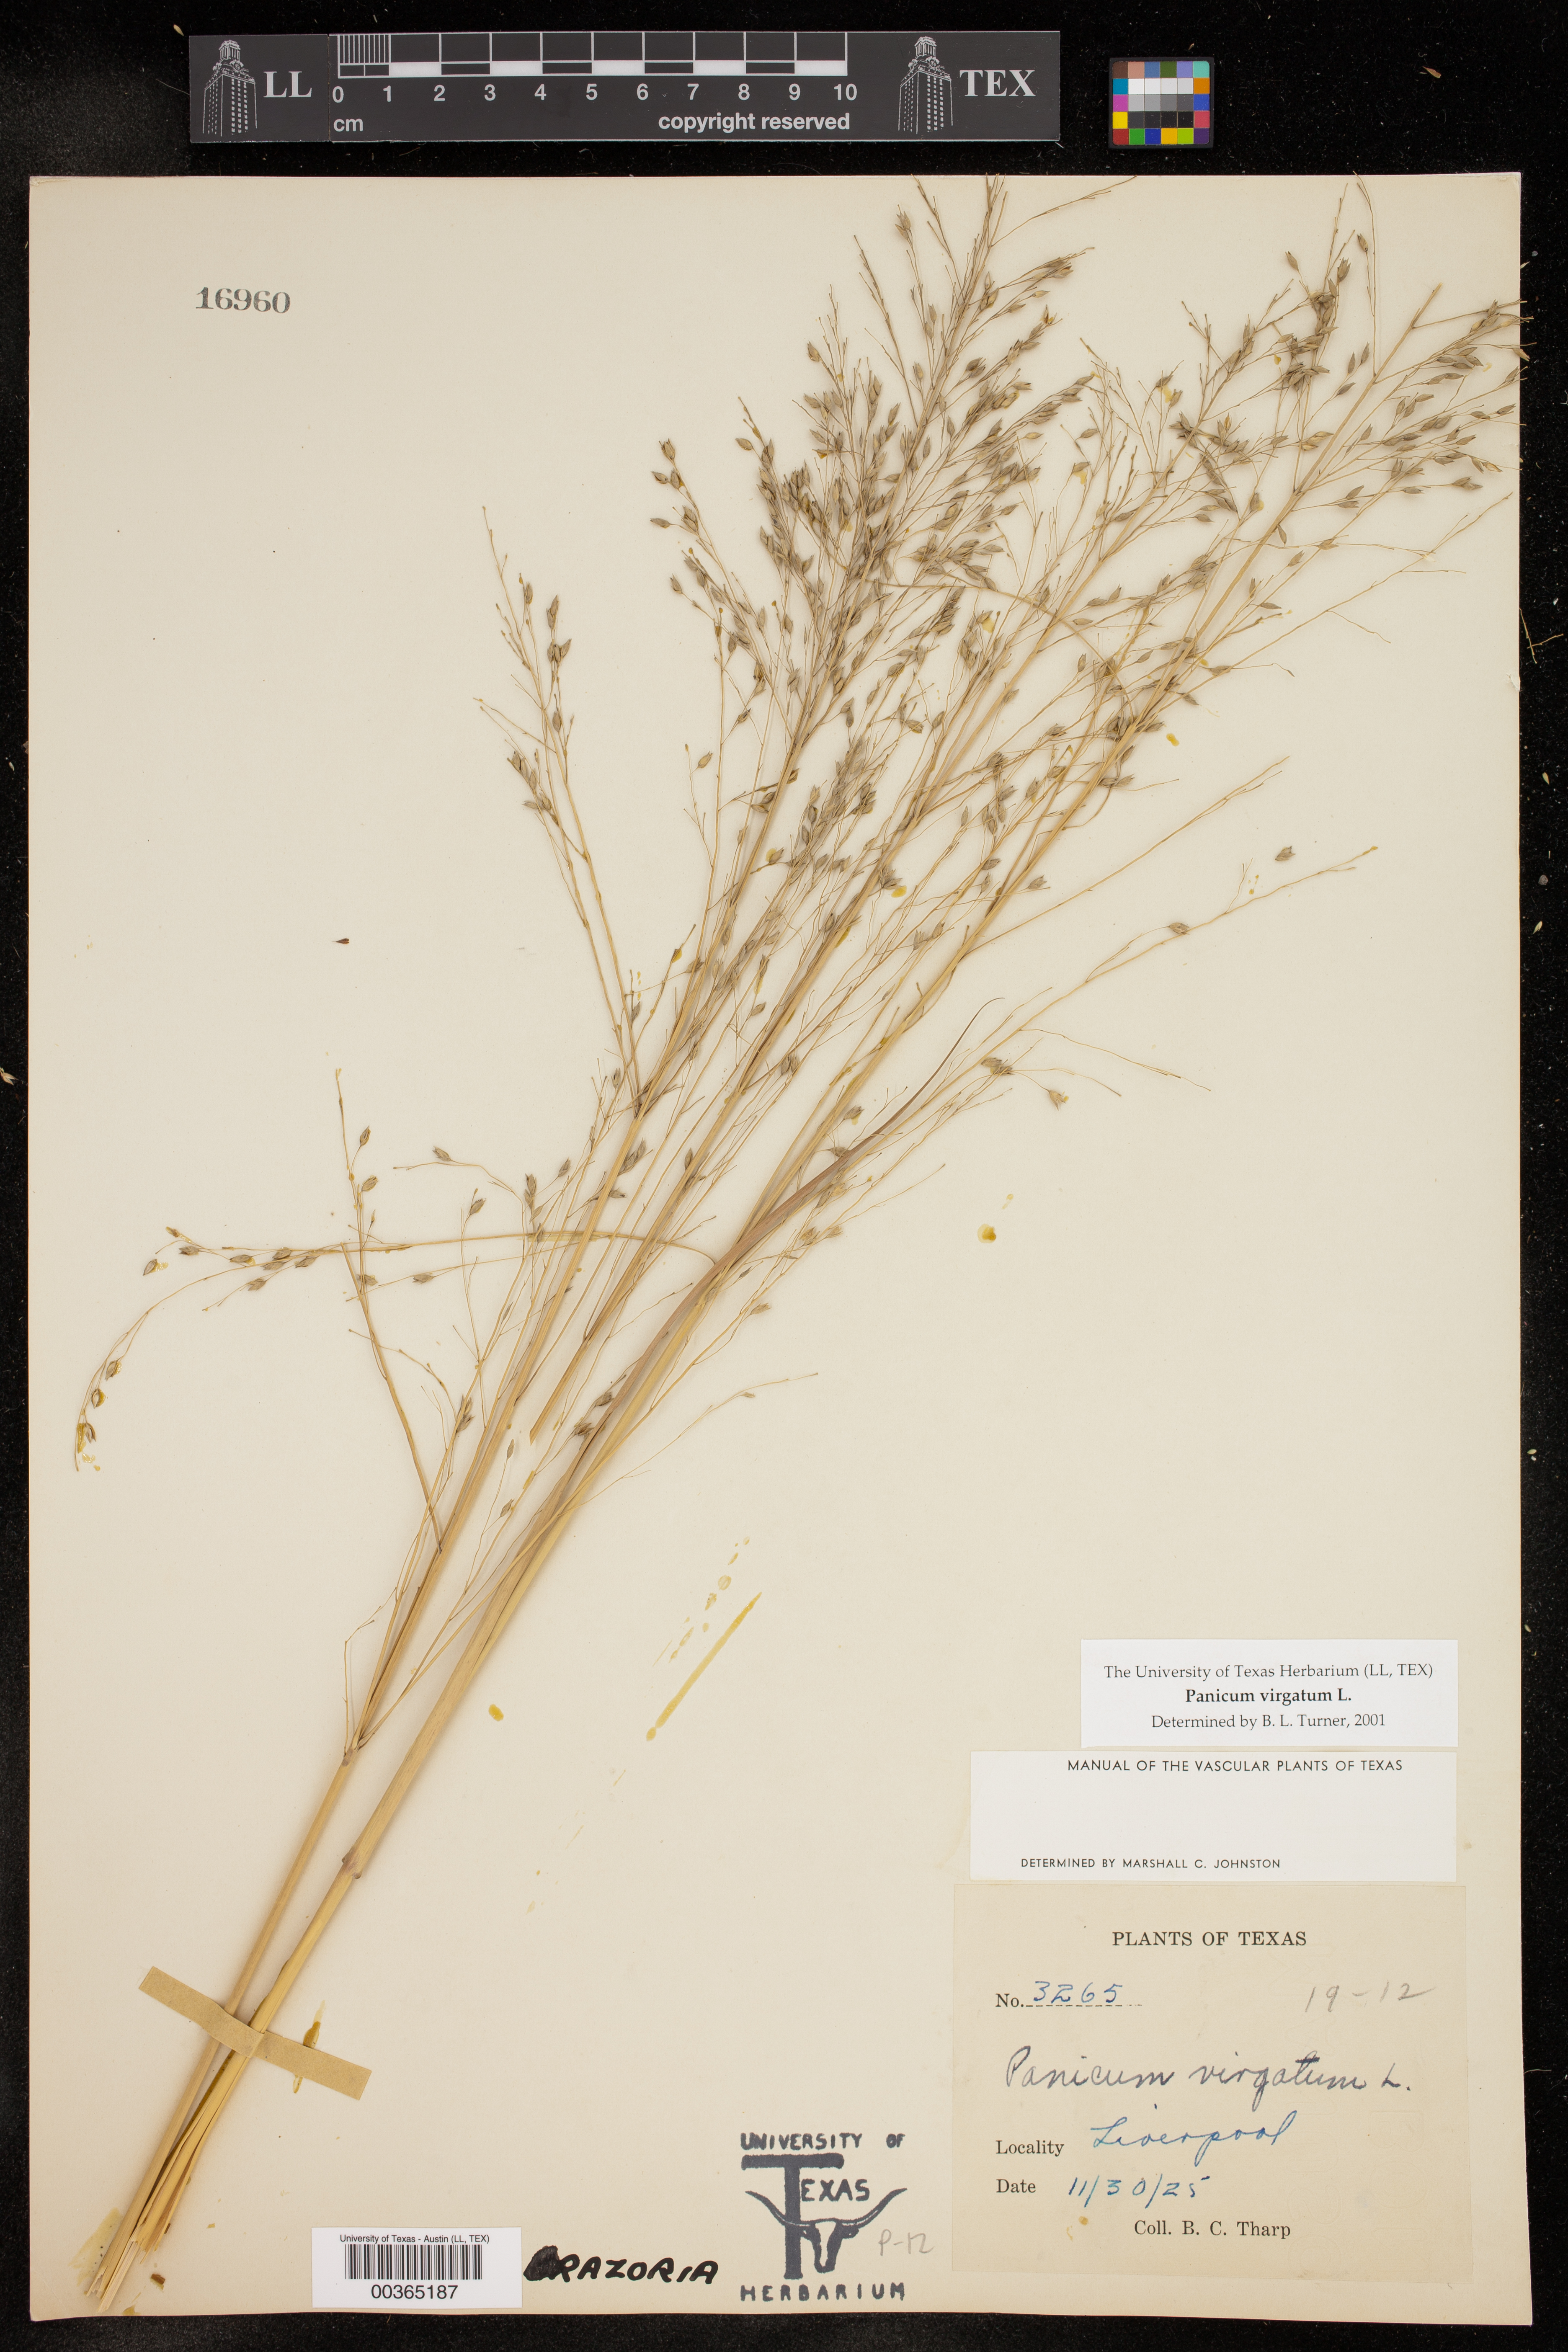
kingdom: Plantae
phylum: Tracheophyta
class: Liliopsida
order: Poales
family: Poaceae
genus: Panicum
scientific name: Panicum virgatum
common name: Switchgrass
